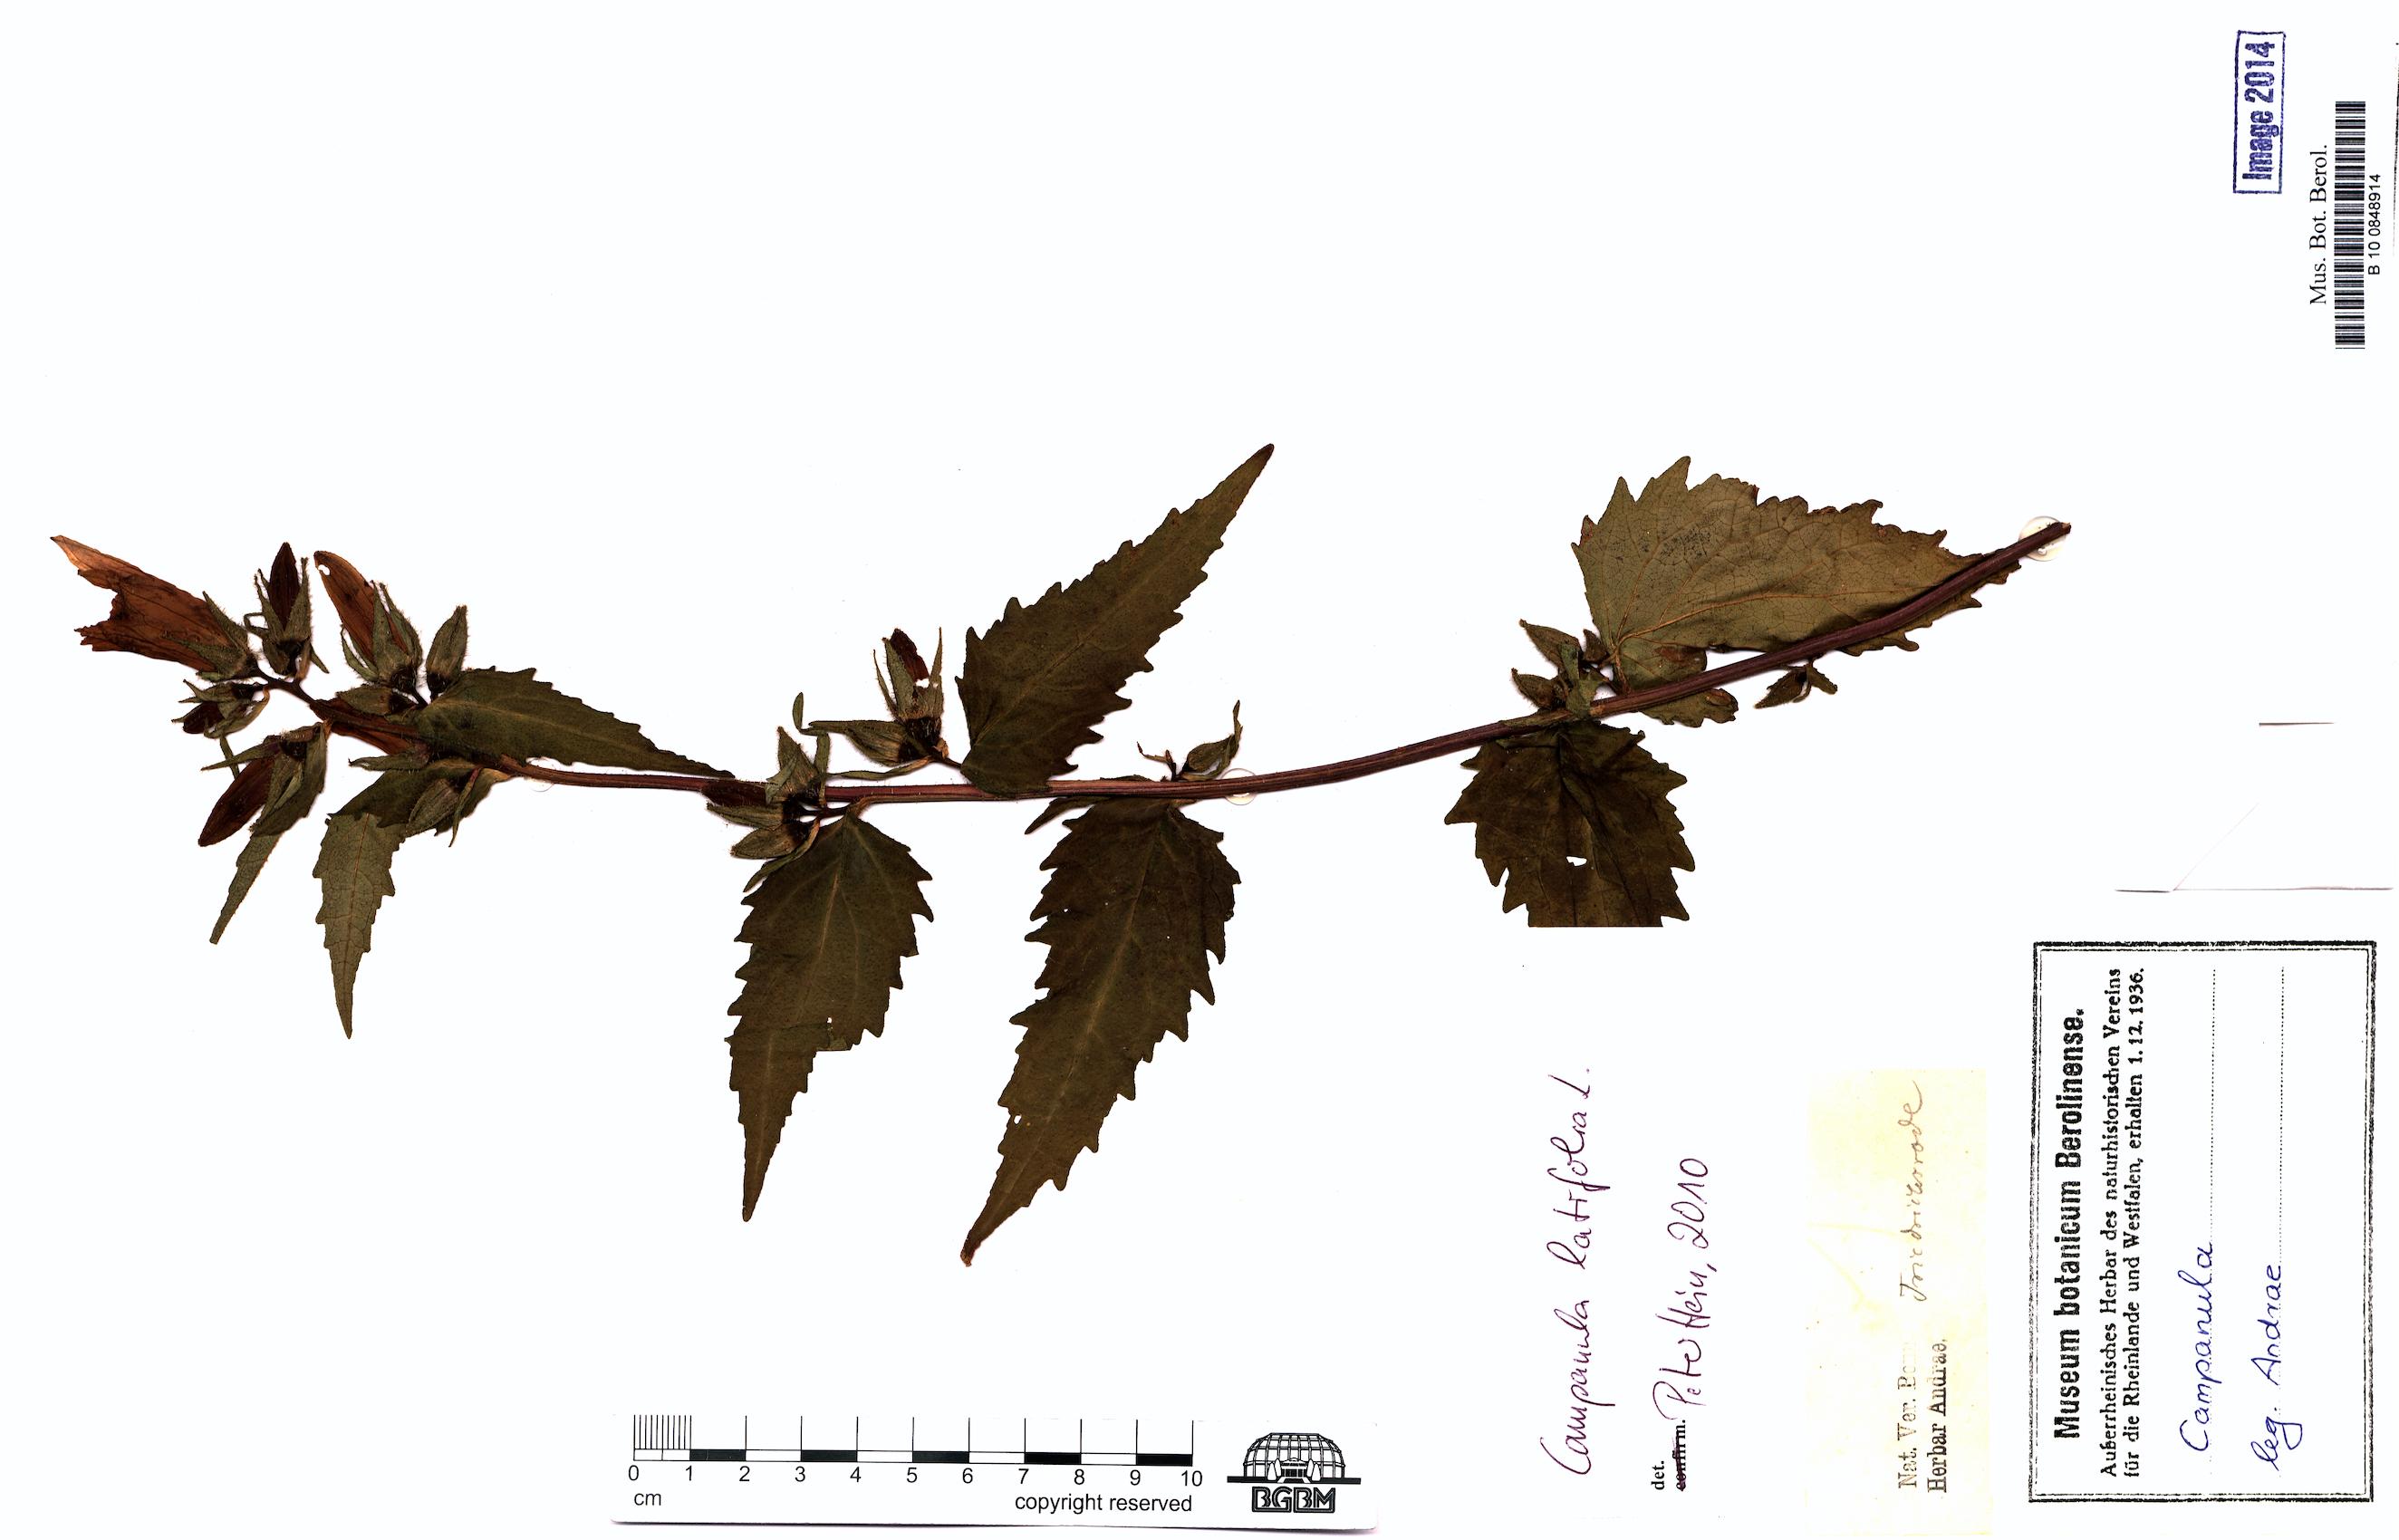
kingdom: Plantae
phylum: Tracheophyta
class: Magnoliopsida
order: Asterales
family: Campanulaceae
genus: Campanula
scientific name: Campanula latifolia
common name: Giant bellflower
